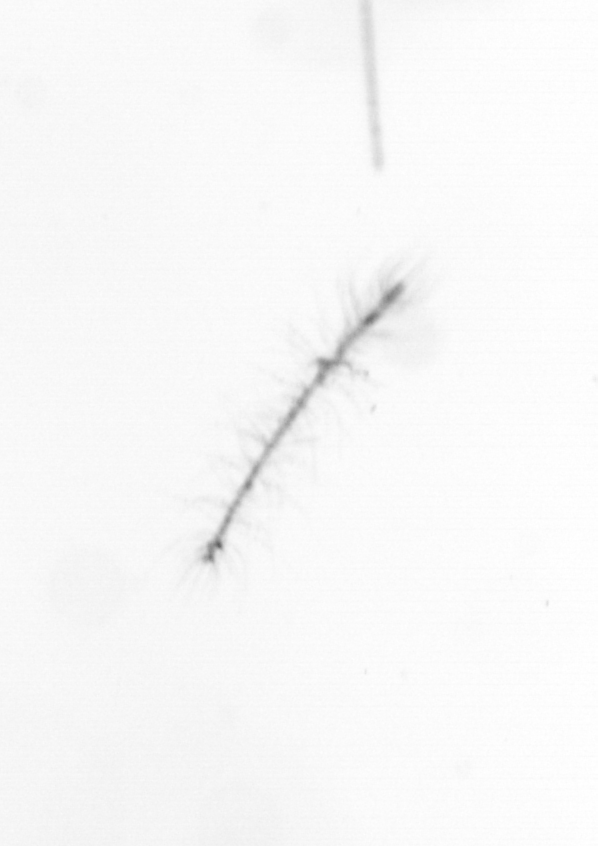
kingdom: Chromista
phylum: Ochrophyta
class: Bacillariophyceae
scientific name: Bacillariophyceae
